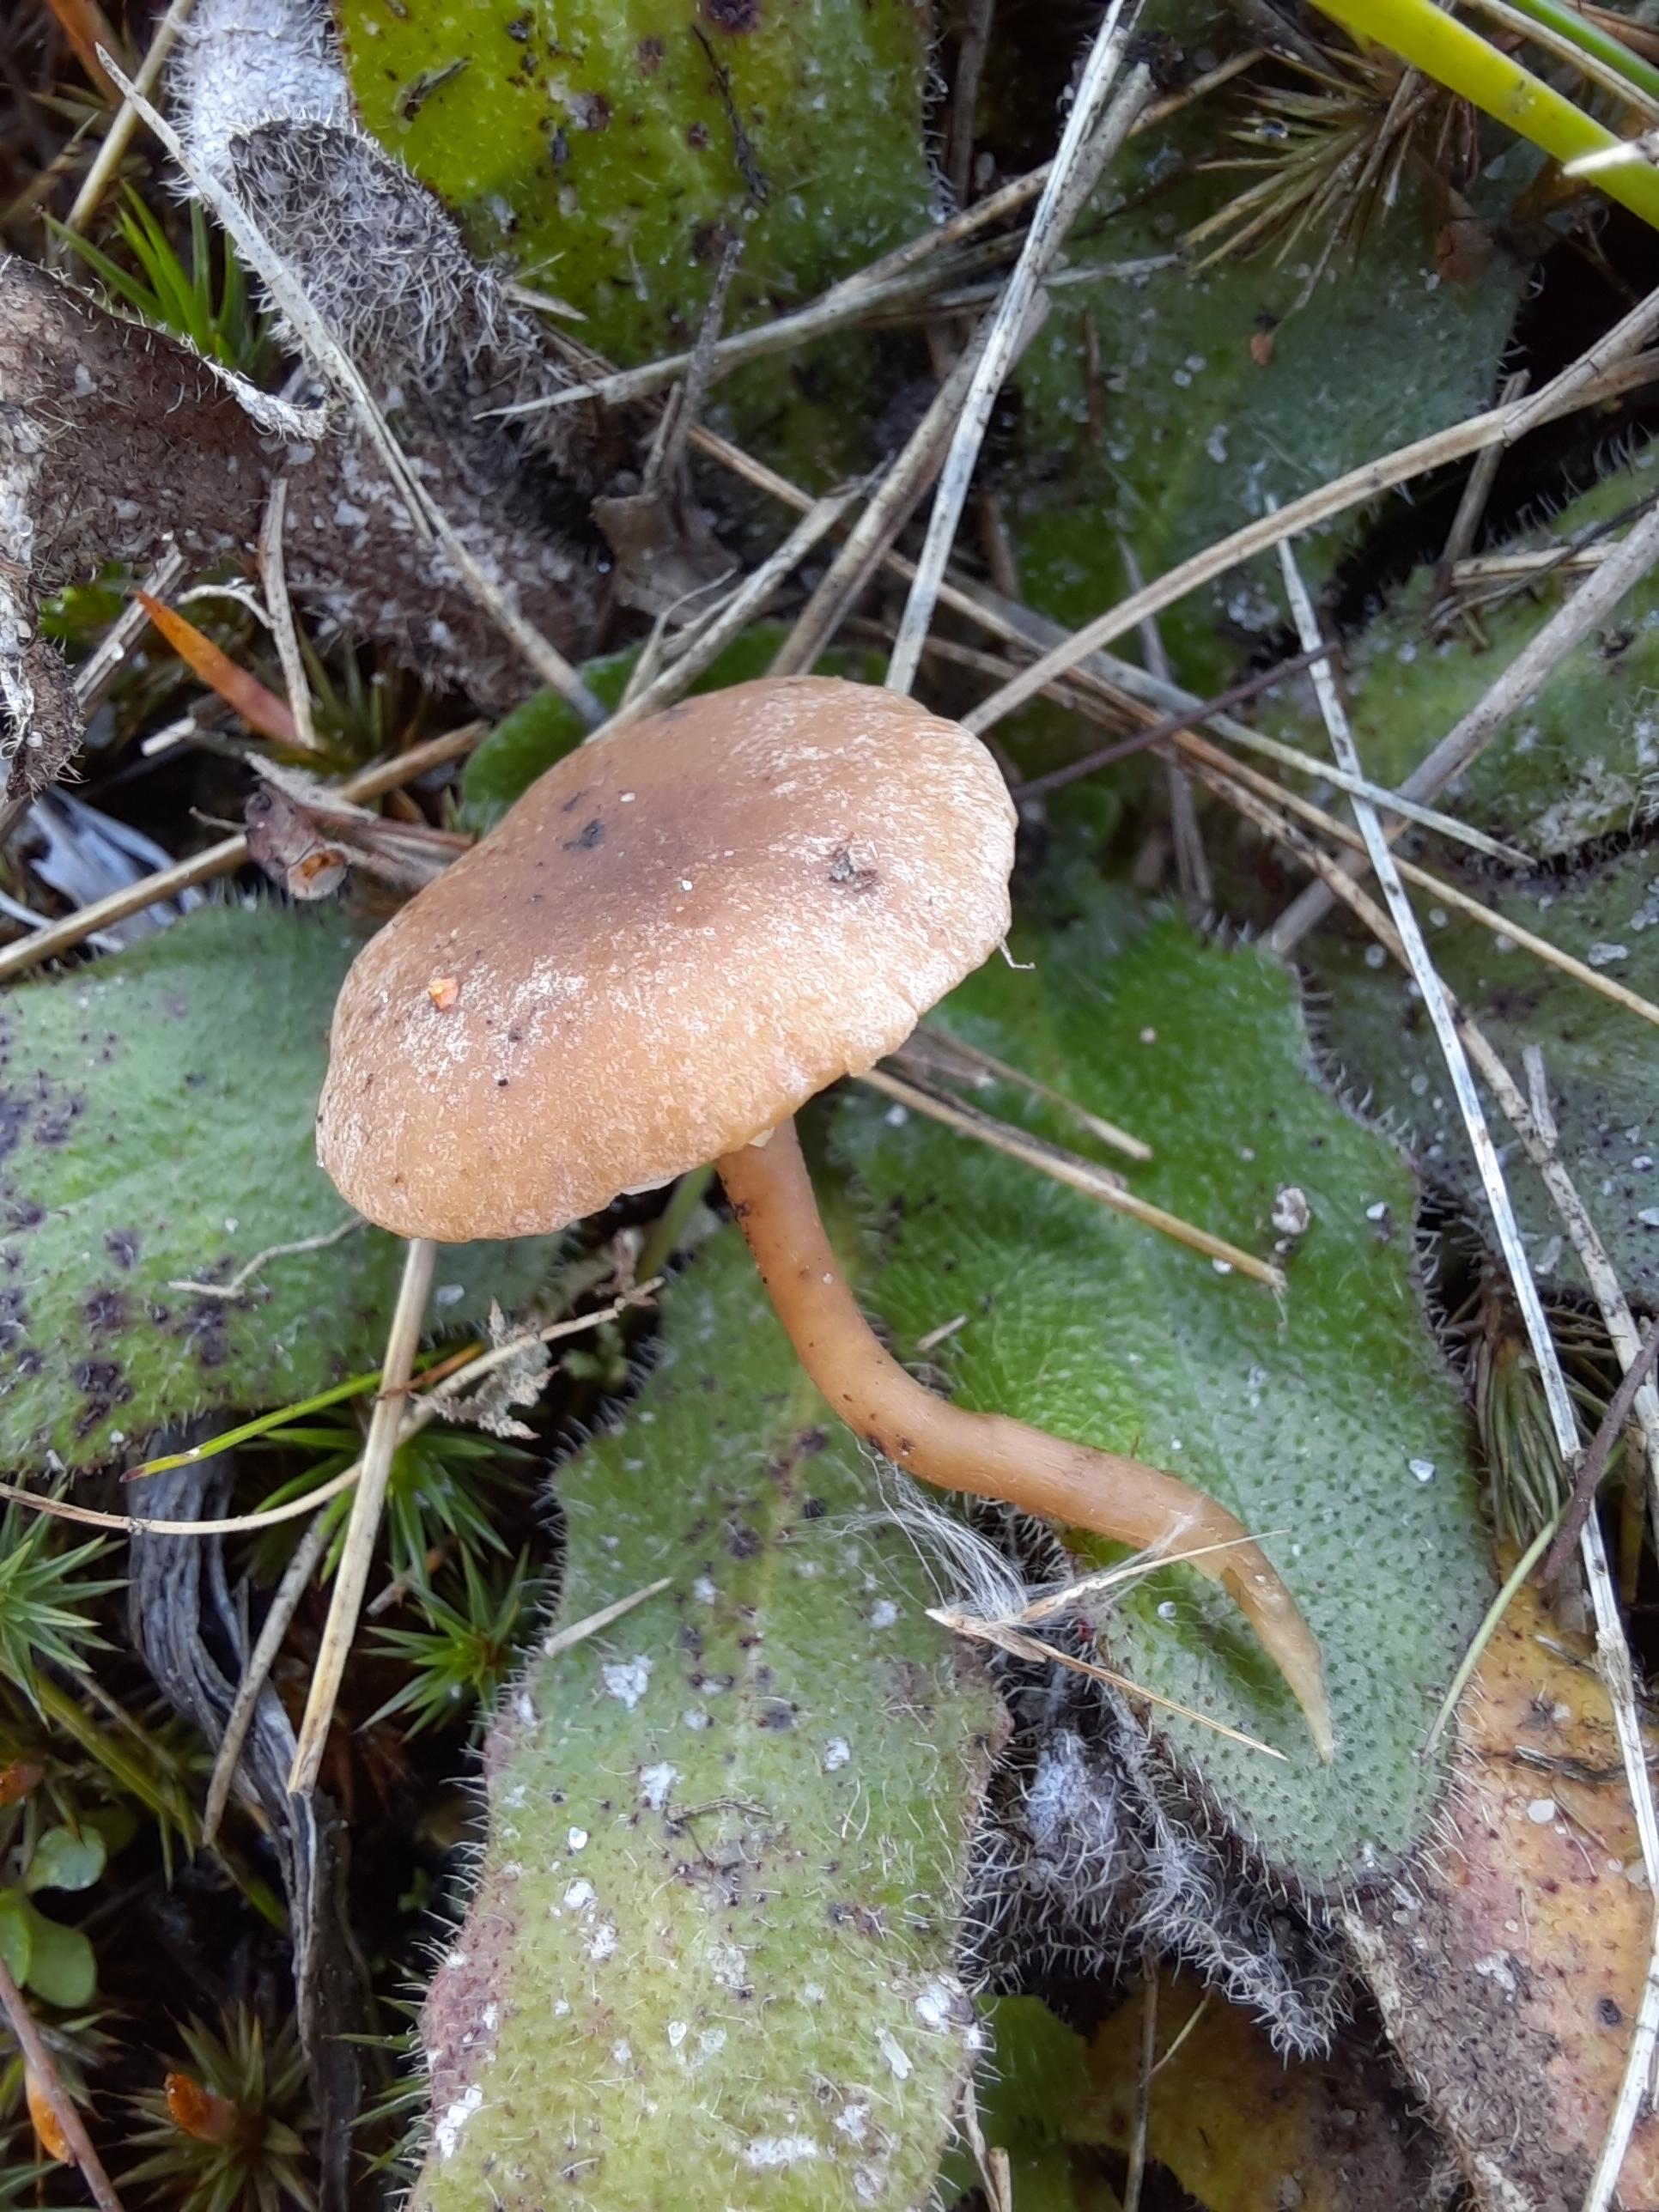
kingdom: Fungi
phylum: Basidiomycota
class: Agaricomycetes
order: Agaricales
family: Callistosporiaceae
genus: Pseudolaccaria
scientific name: Pseudolaccaria pachyphylla
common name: hvælvet tykblad
